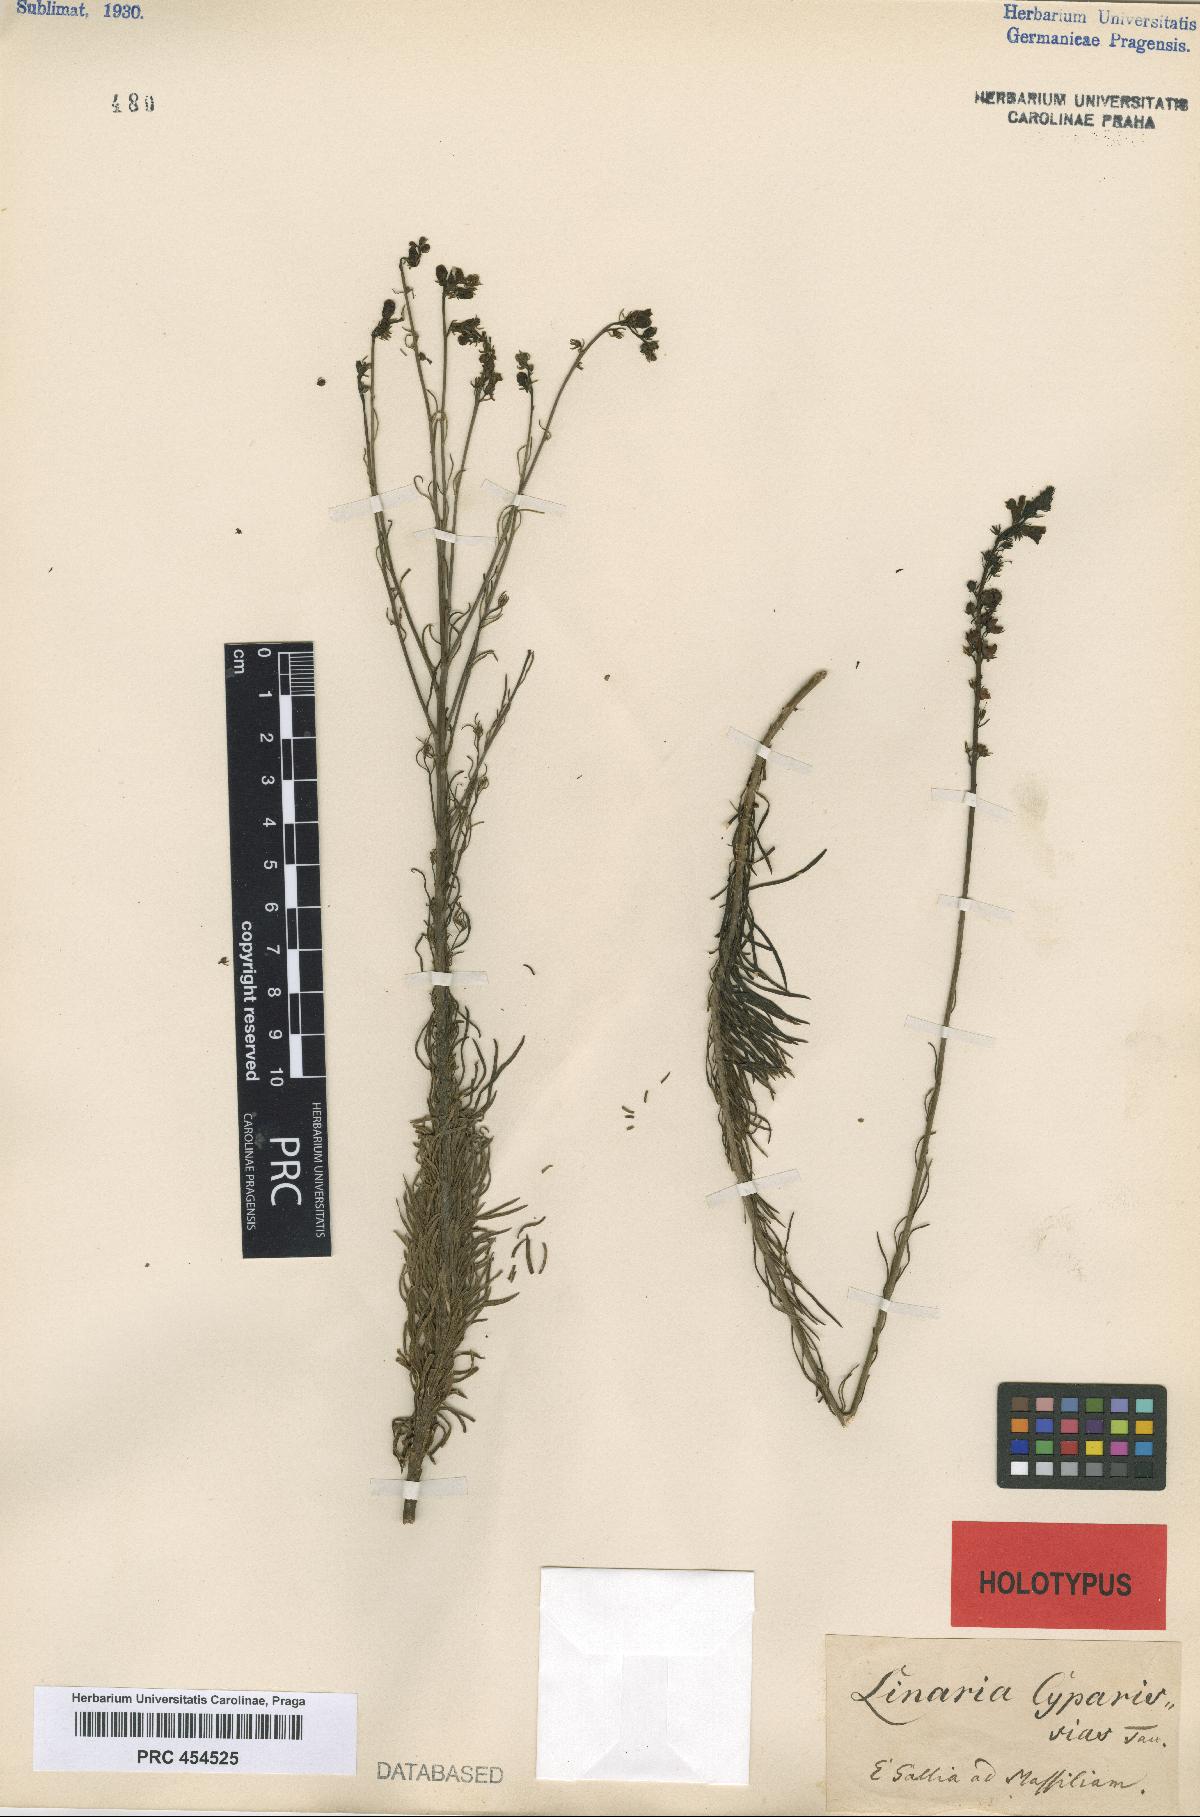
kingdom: Plantae
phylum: Tracheophyta
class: Magnoliopsida
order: Lamiales
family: Plantaginaceae
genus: Linaria
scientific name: Linaria repens
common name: Pale toadflax
